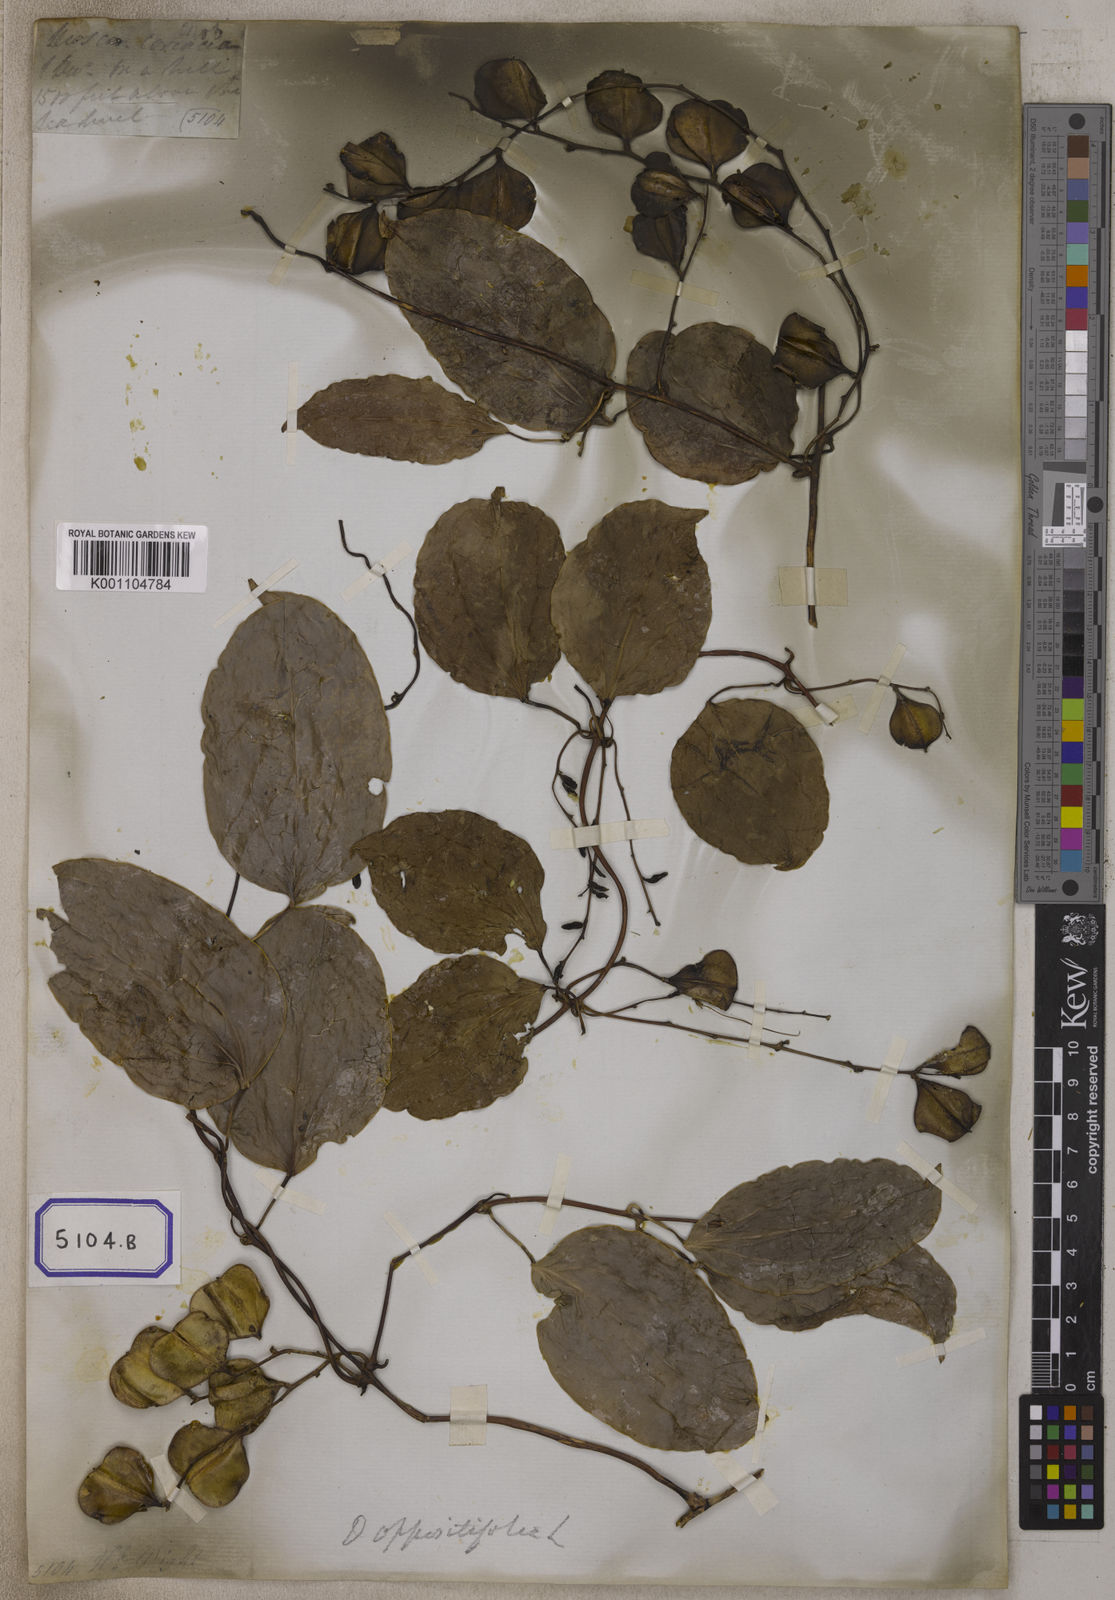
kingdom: Plantae
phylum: Tracheophyta
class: Liliopsida
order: Dioscoreales
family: Dioscoreaceae
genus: Dioscorea
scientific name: Dioscorea oppositifolia
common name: Chinese yam
